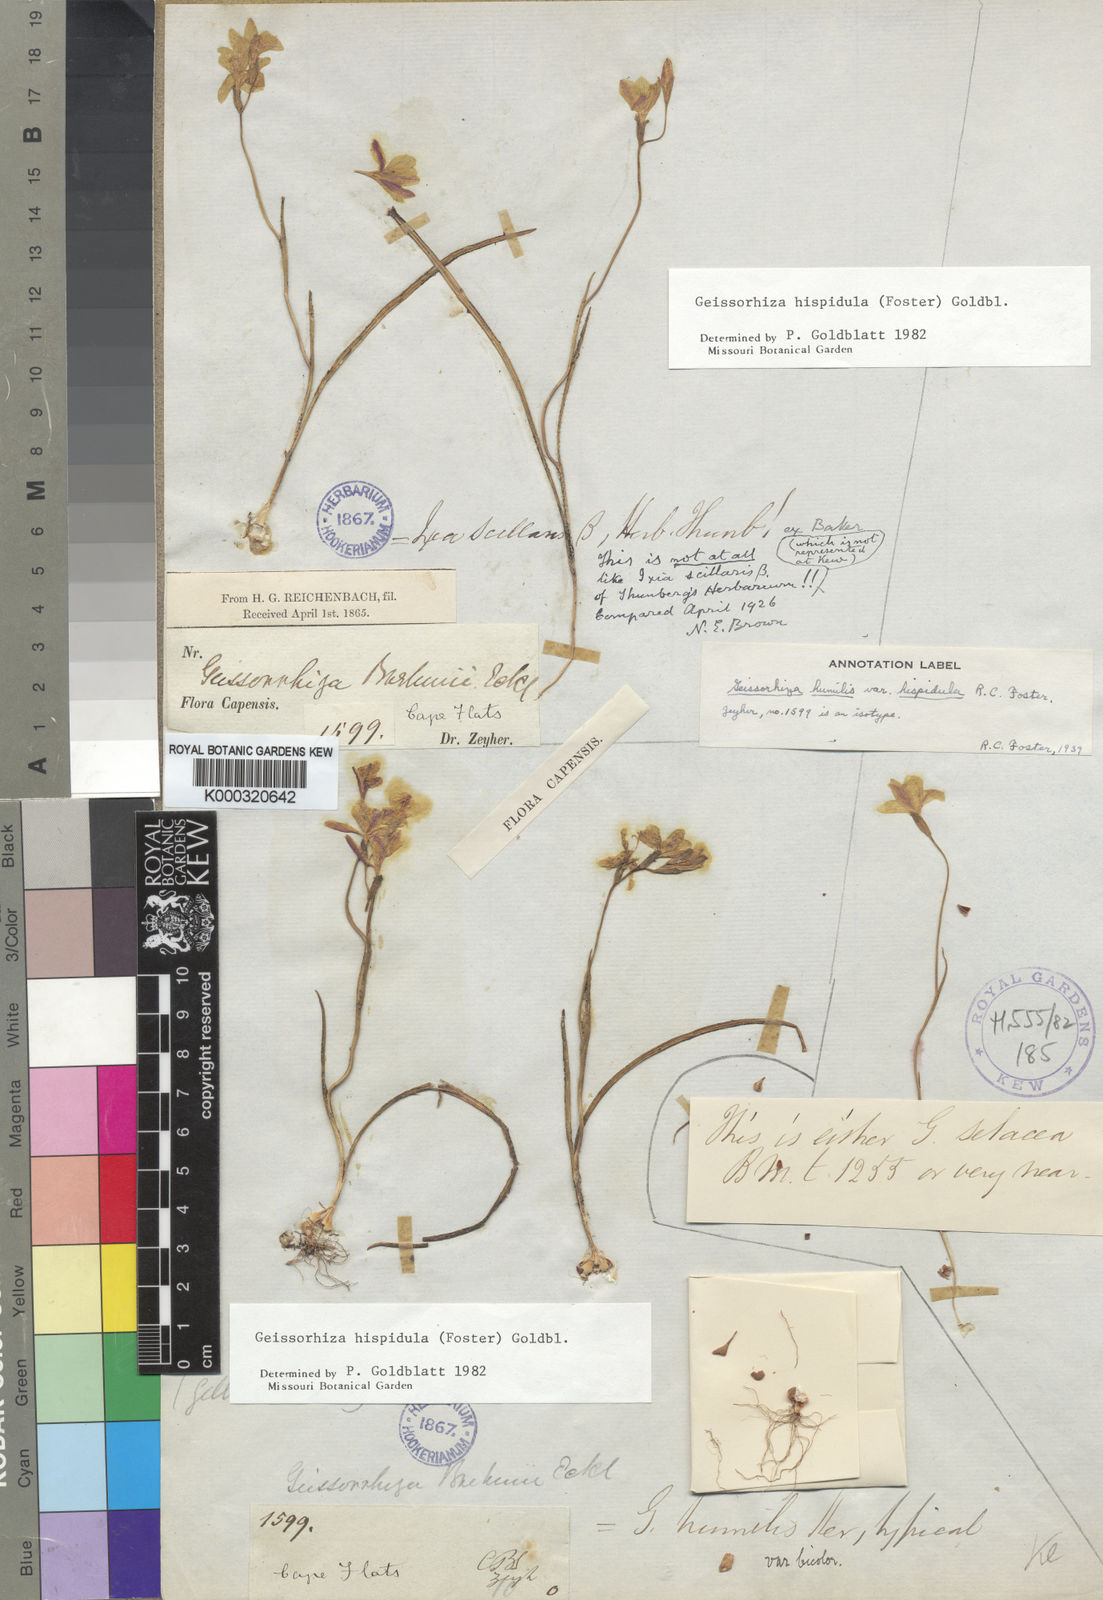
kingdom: Plantae
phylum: Tracheophyta
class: Liliopsida
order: Asparagales
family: Iridaceae
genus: Geissorhiza
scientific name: Geissorhiza hispidula
